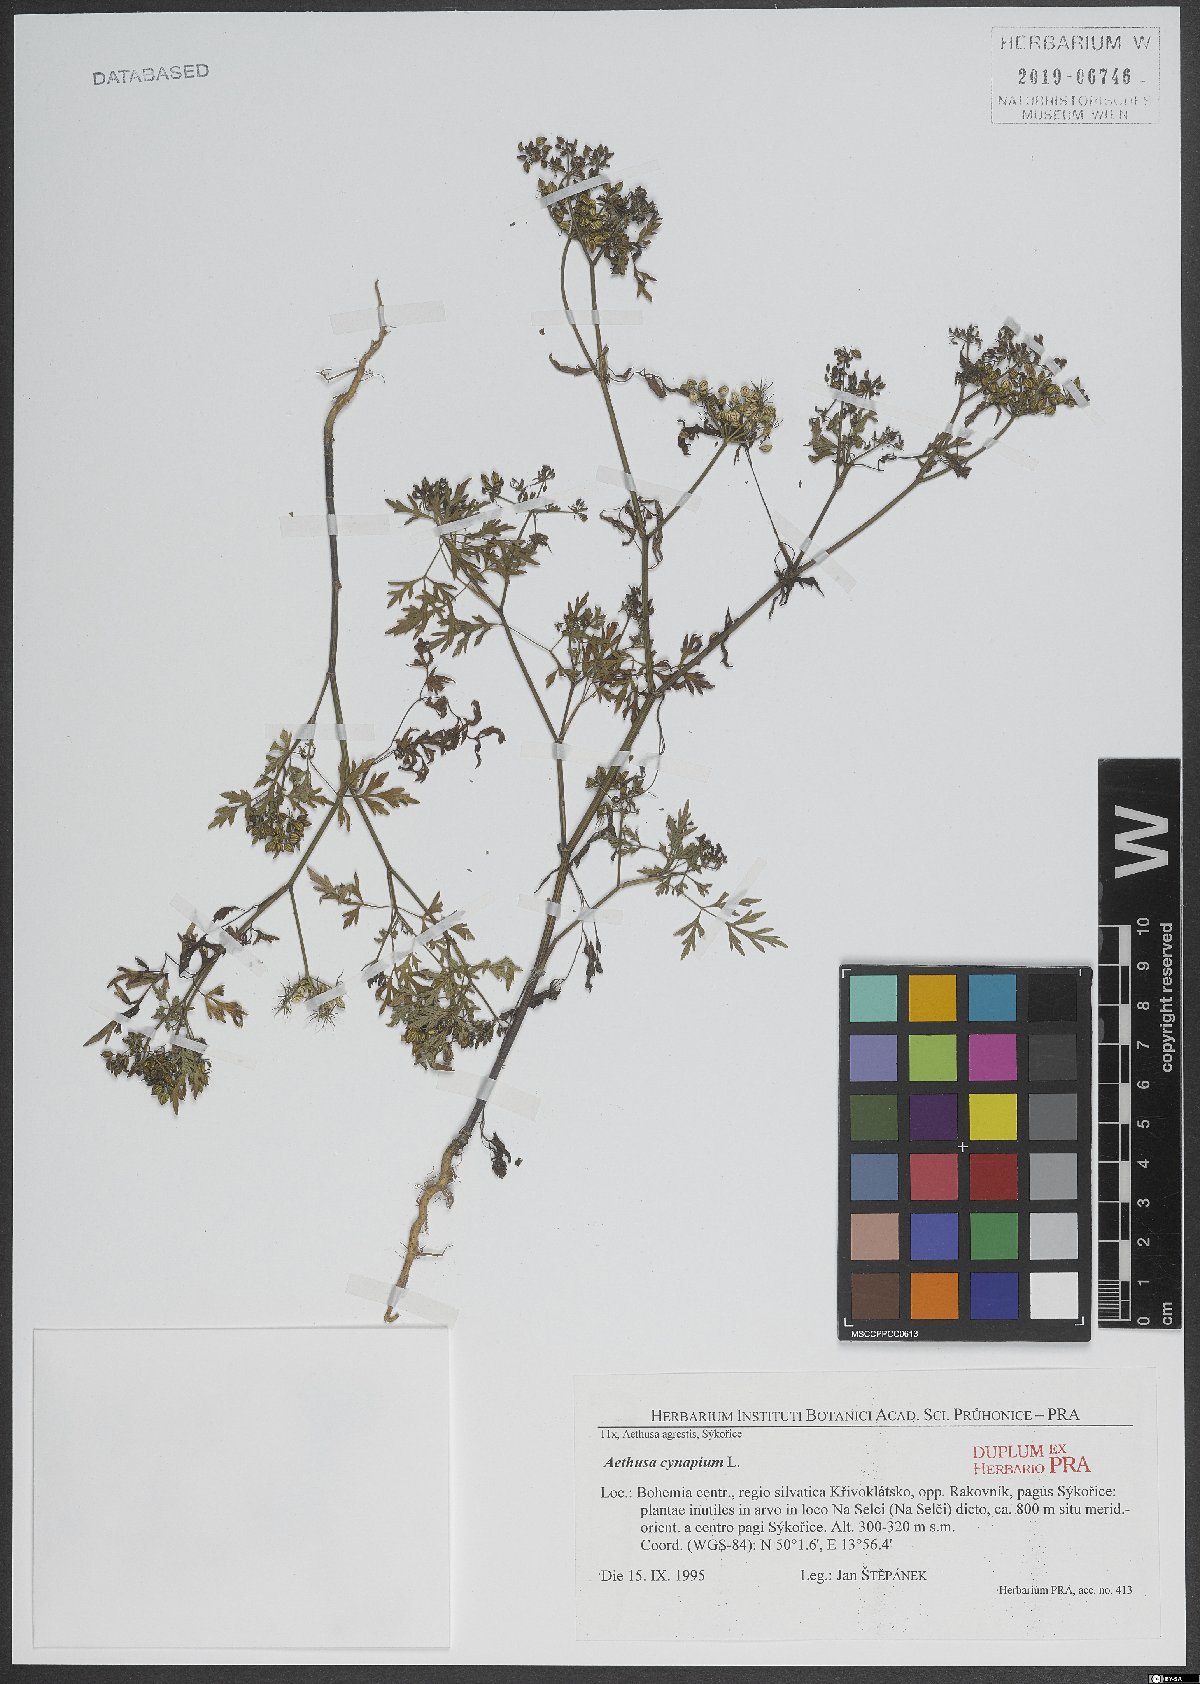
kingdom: Plantae
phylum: Tracheophyta
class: Magnoliopsida
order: Apiales
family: Apiaceae
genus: Aethusa
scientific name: Aethusa cynapium
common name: Fool's parsley
